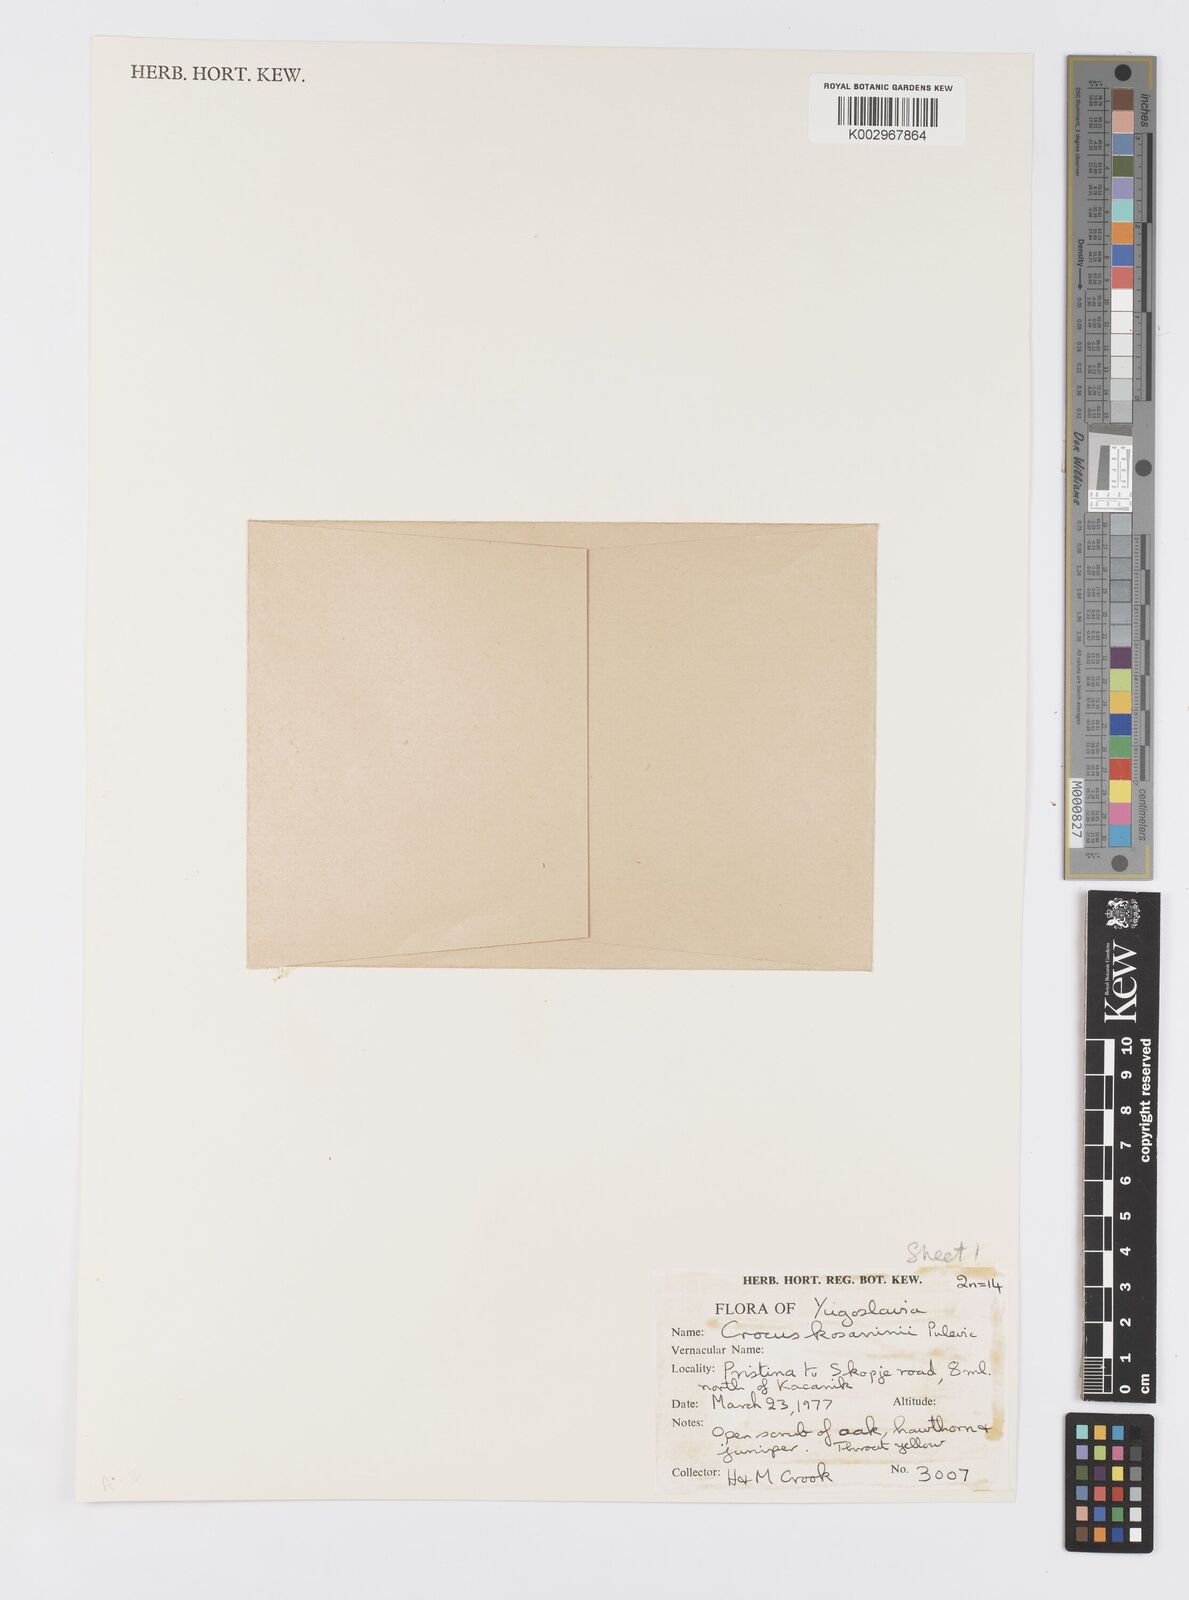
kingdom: Plantae
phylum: Tracheophyta
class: Liliopsida
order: Asparagales
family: Iridaceae
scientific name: Iridaceae
